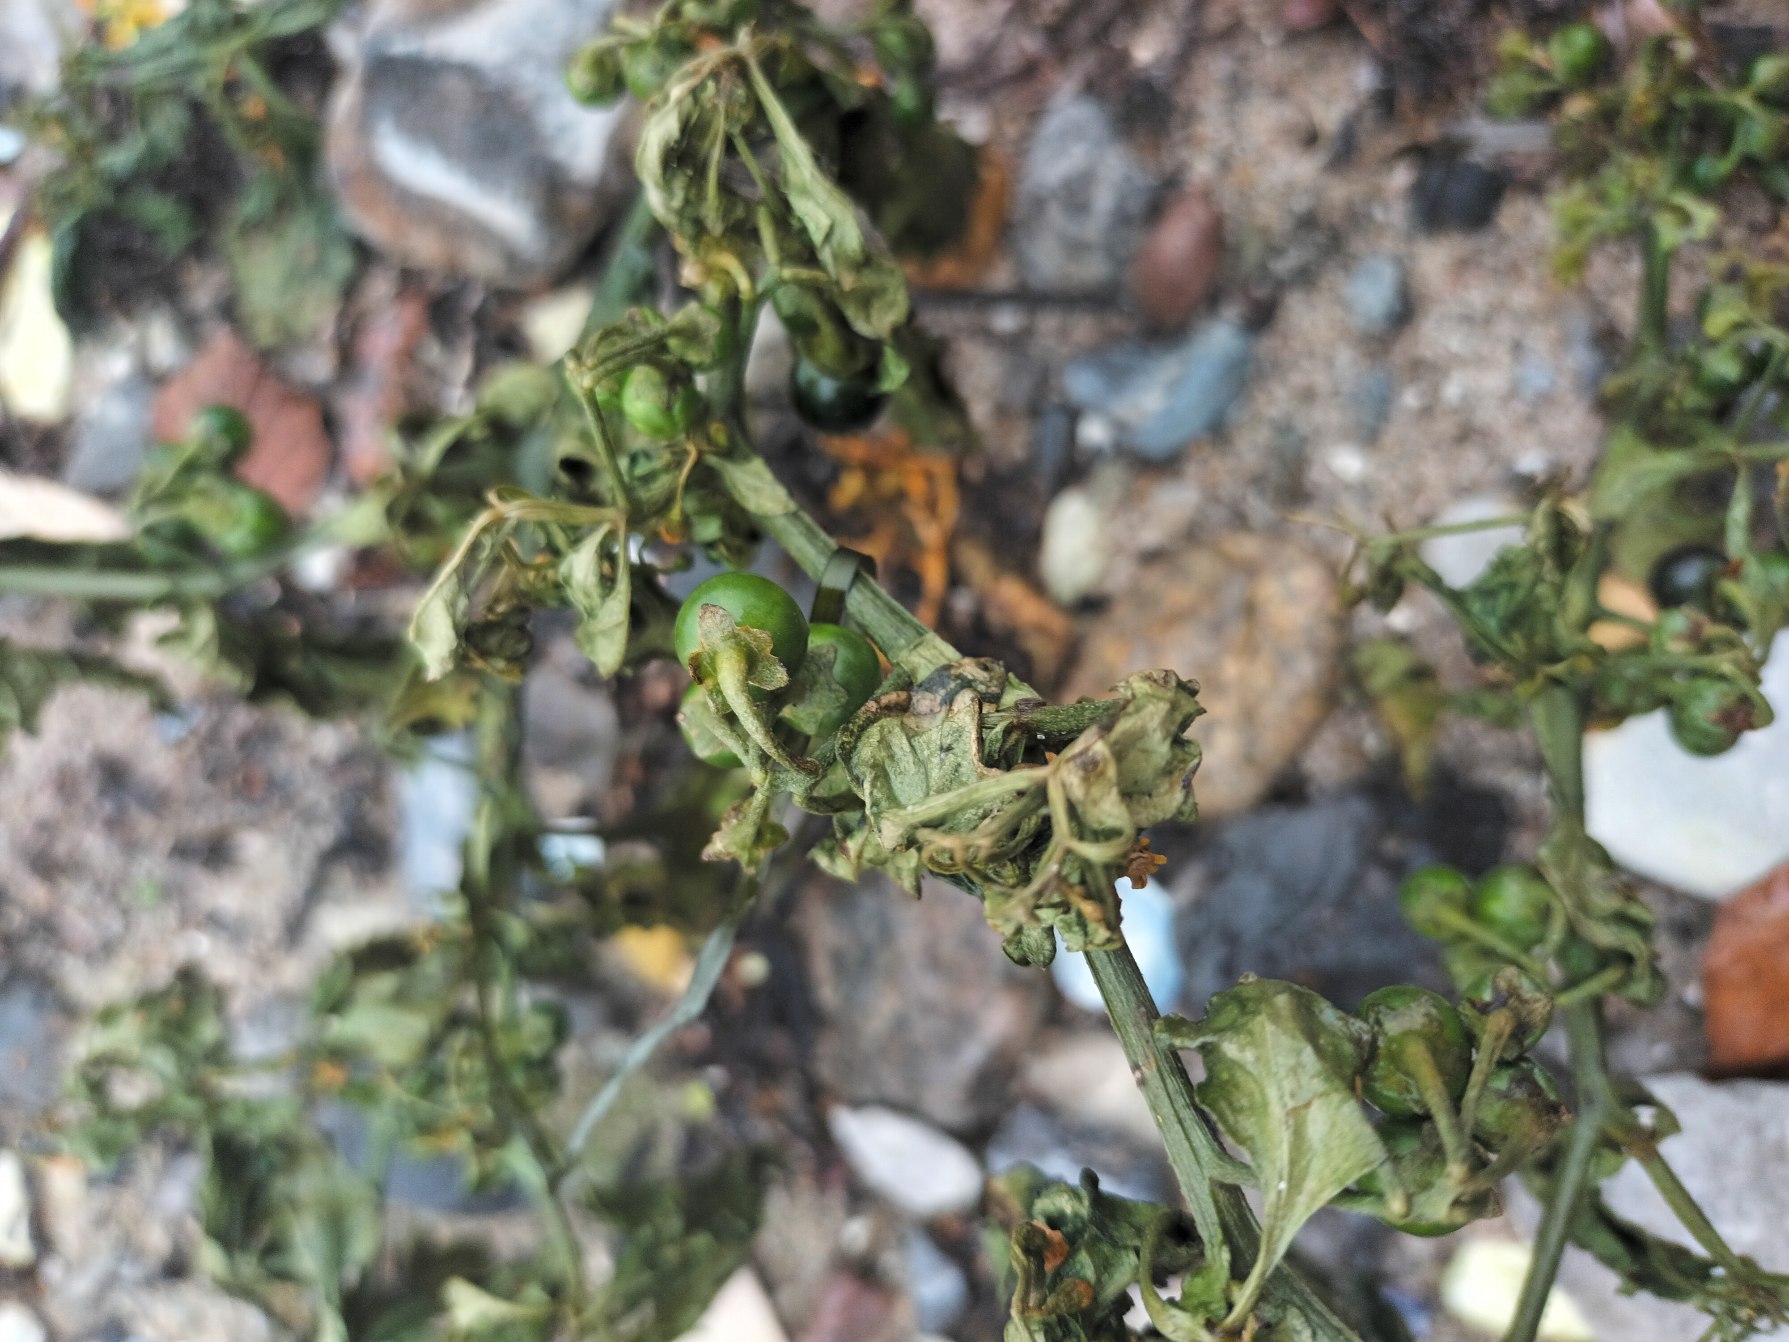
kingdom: Plantae
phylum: Tracheophyta
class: Magnoliopsida
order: Solanales
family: Solanaceae
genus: Solanum
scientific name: Solanum nigrum
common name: Sort natskygge
